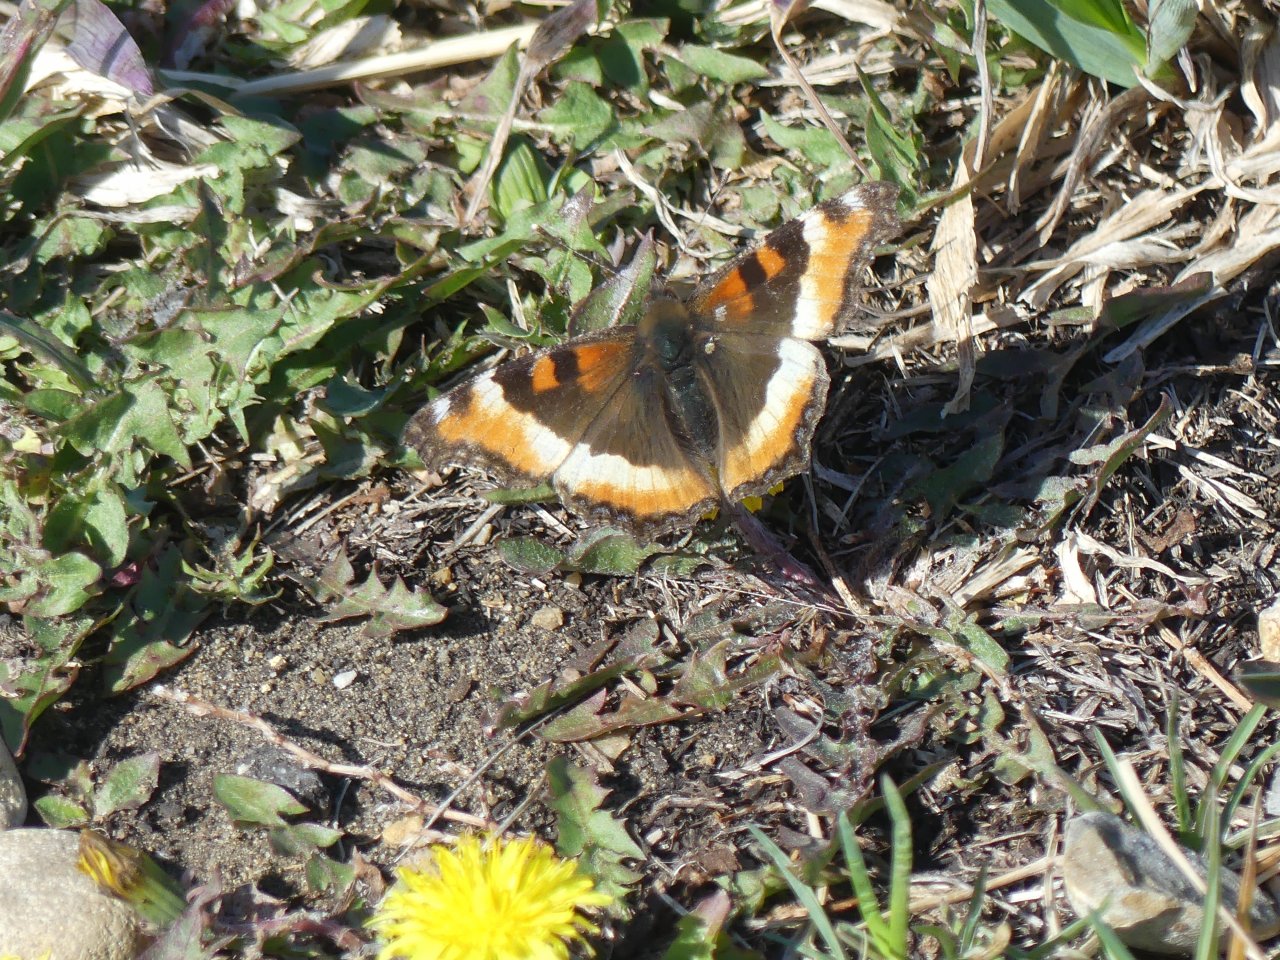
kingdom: Animalia
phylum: Arthropoda
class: Insecta
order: Lepidoptera
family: Nymphalidae
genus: Aglais
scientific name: Aglais milberti
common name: Milbert's Tortoiseshell
